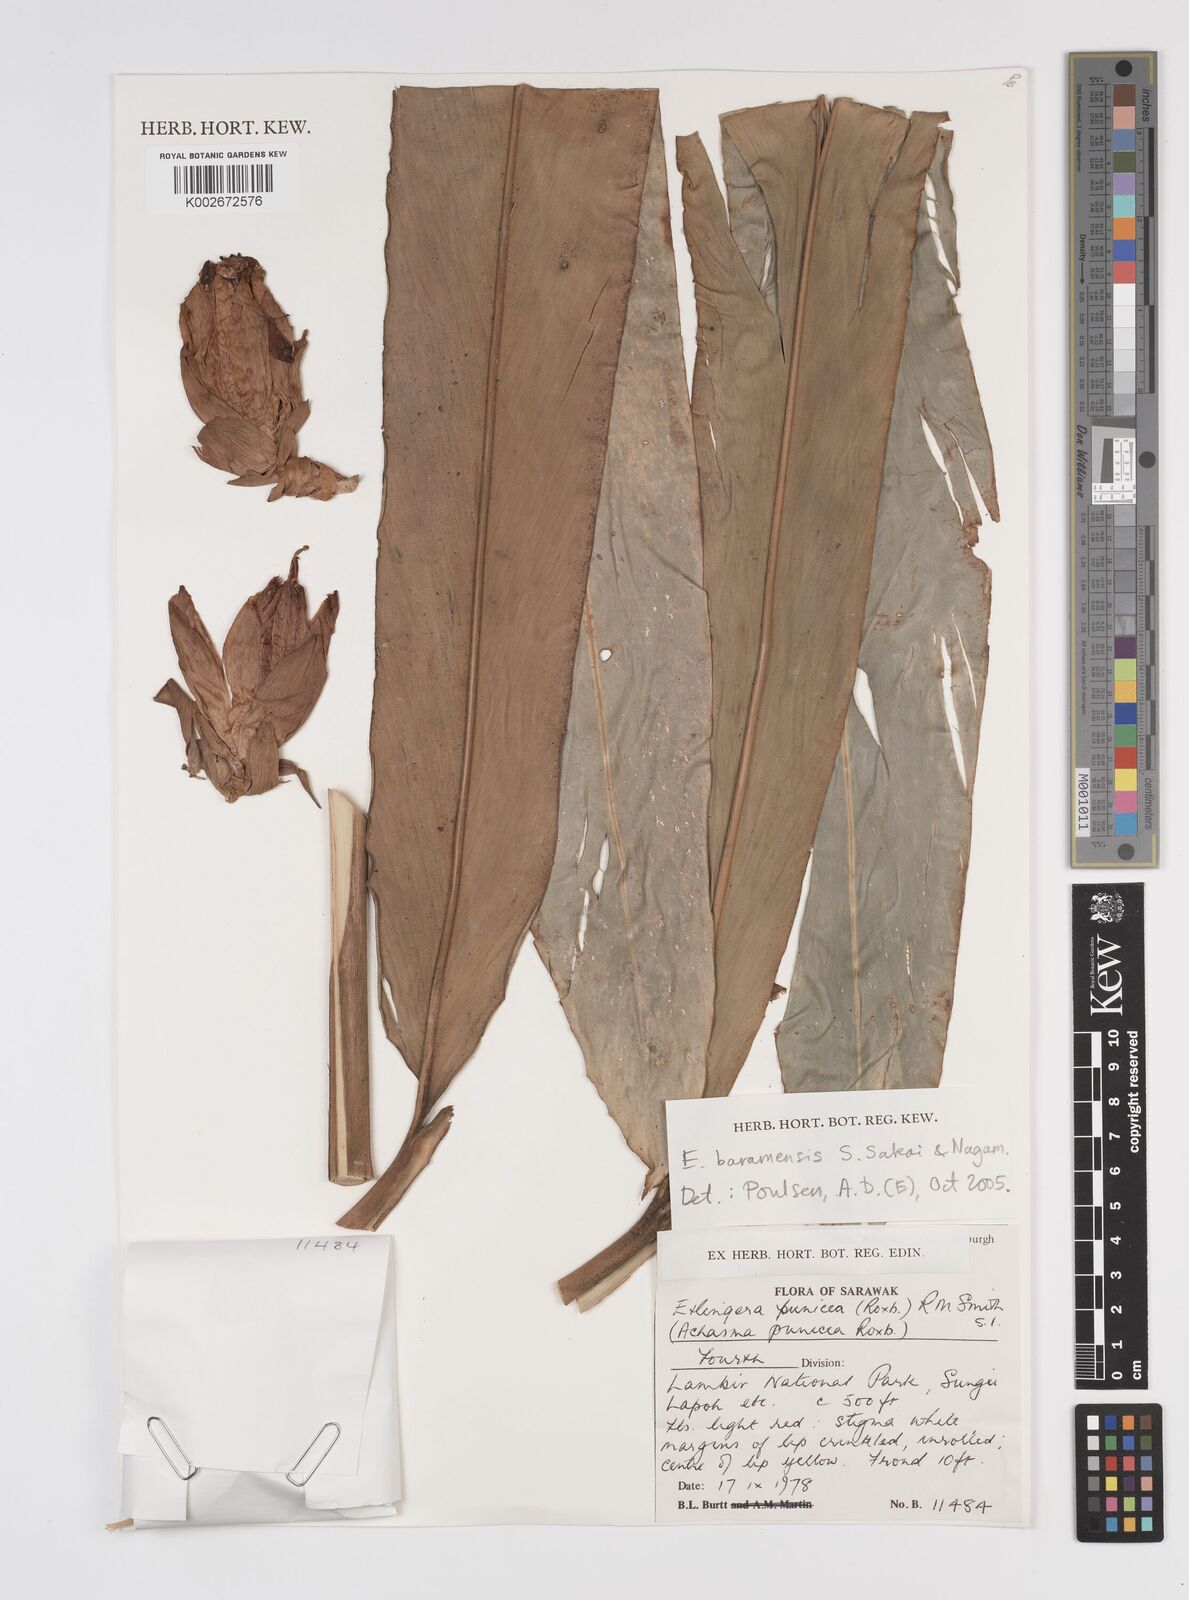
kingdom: Plantae
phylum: Tracheophyta
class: Liliopsida
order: Zingiberales
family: Zingiberaceae
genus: Etlingera
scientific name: Etlingera baramensis
